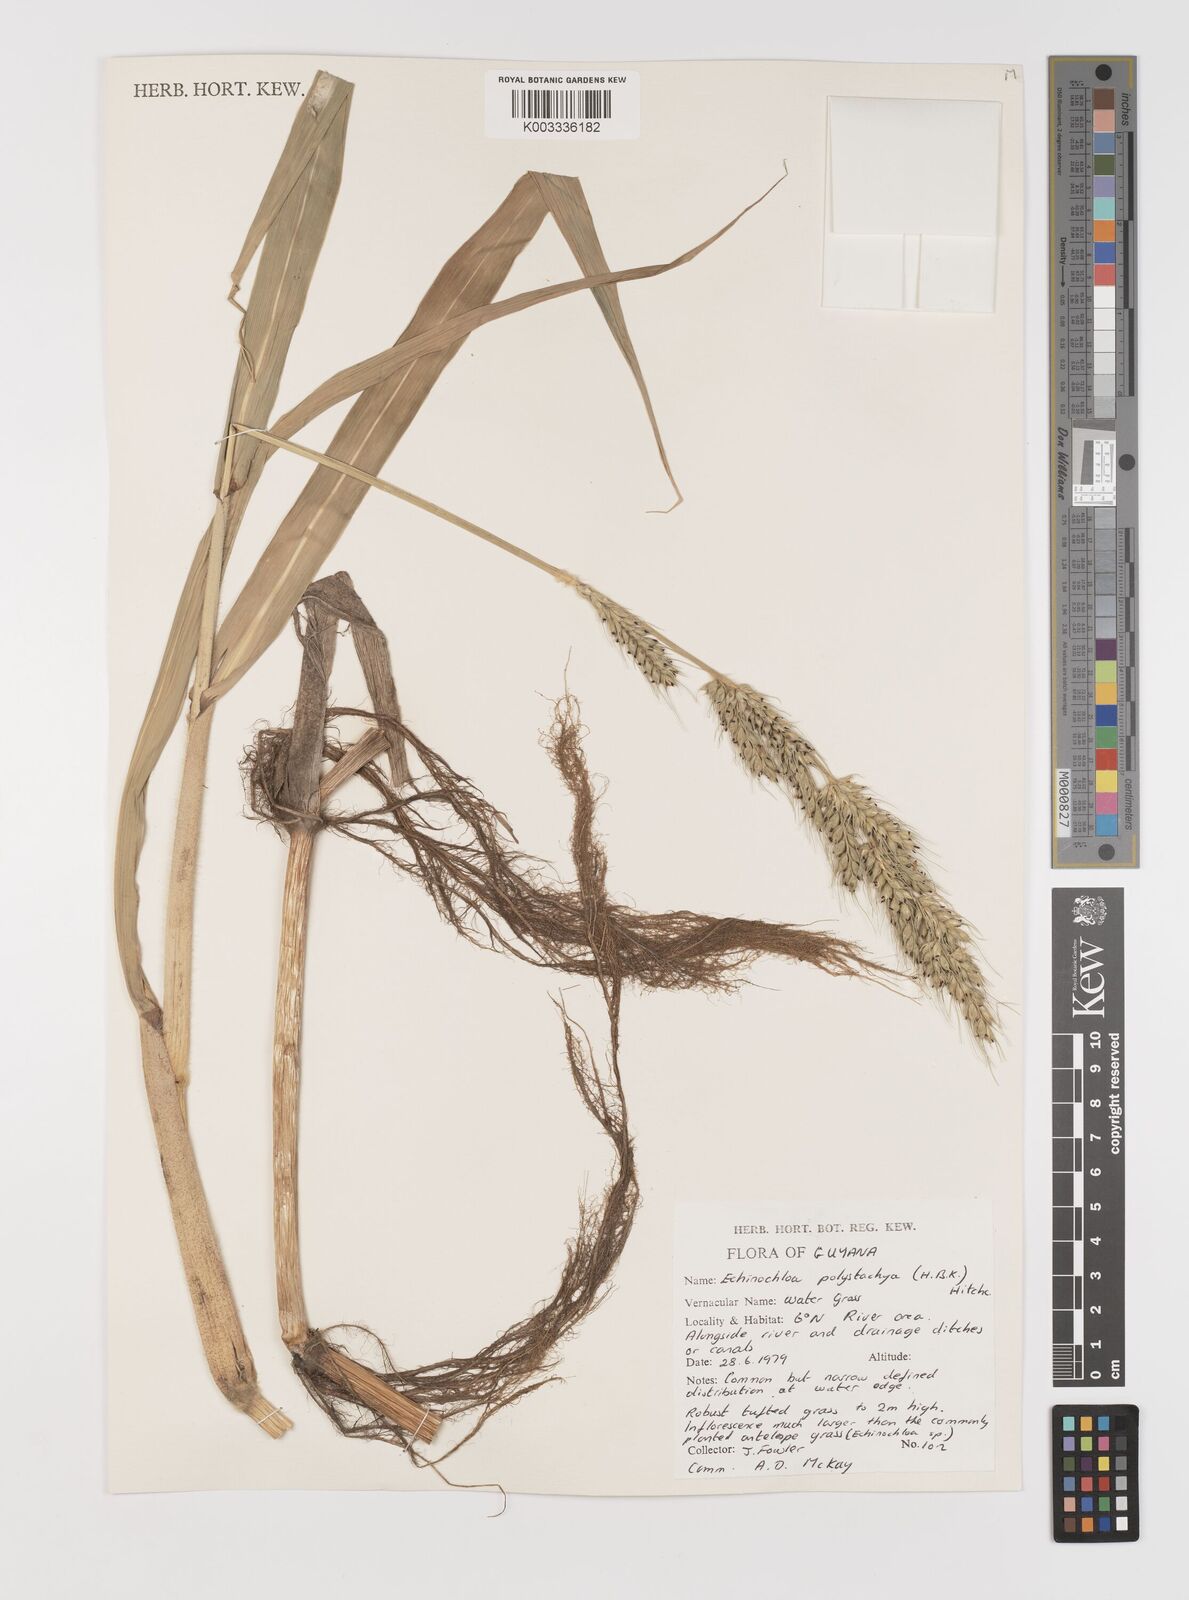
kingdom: Plantae
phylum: Tracheophyta
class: Liliopsida
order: Poales
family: Poaceae
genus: Pseudechinolaena
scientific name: Pseudechinolaena polystachya
